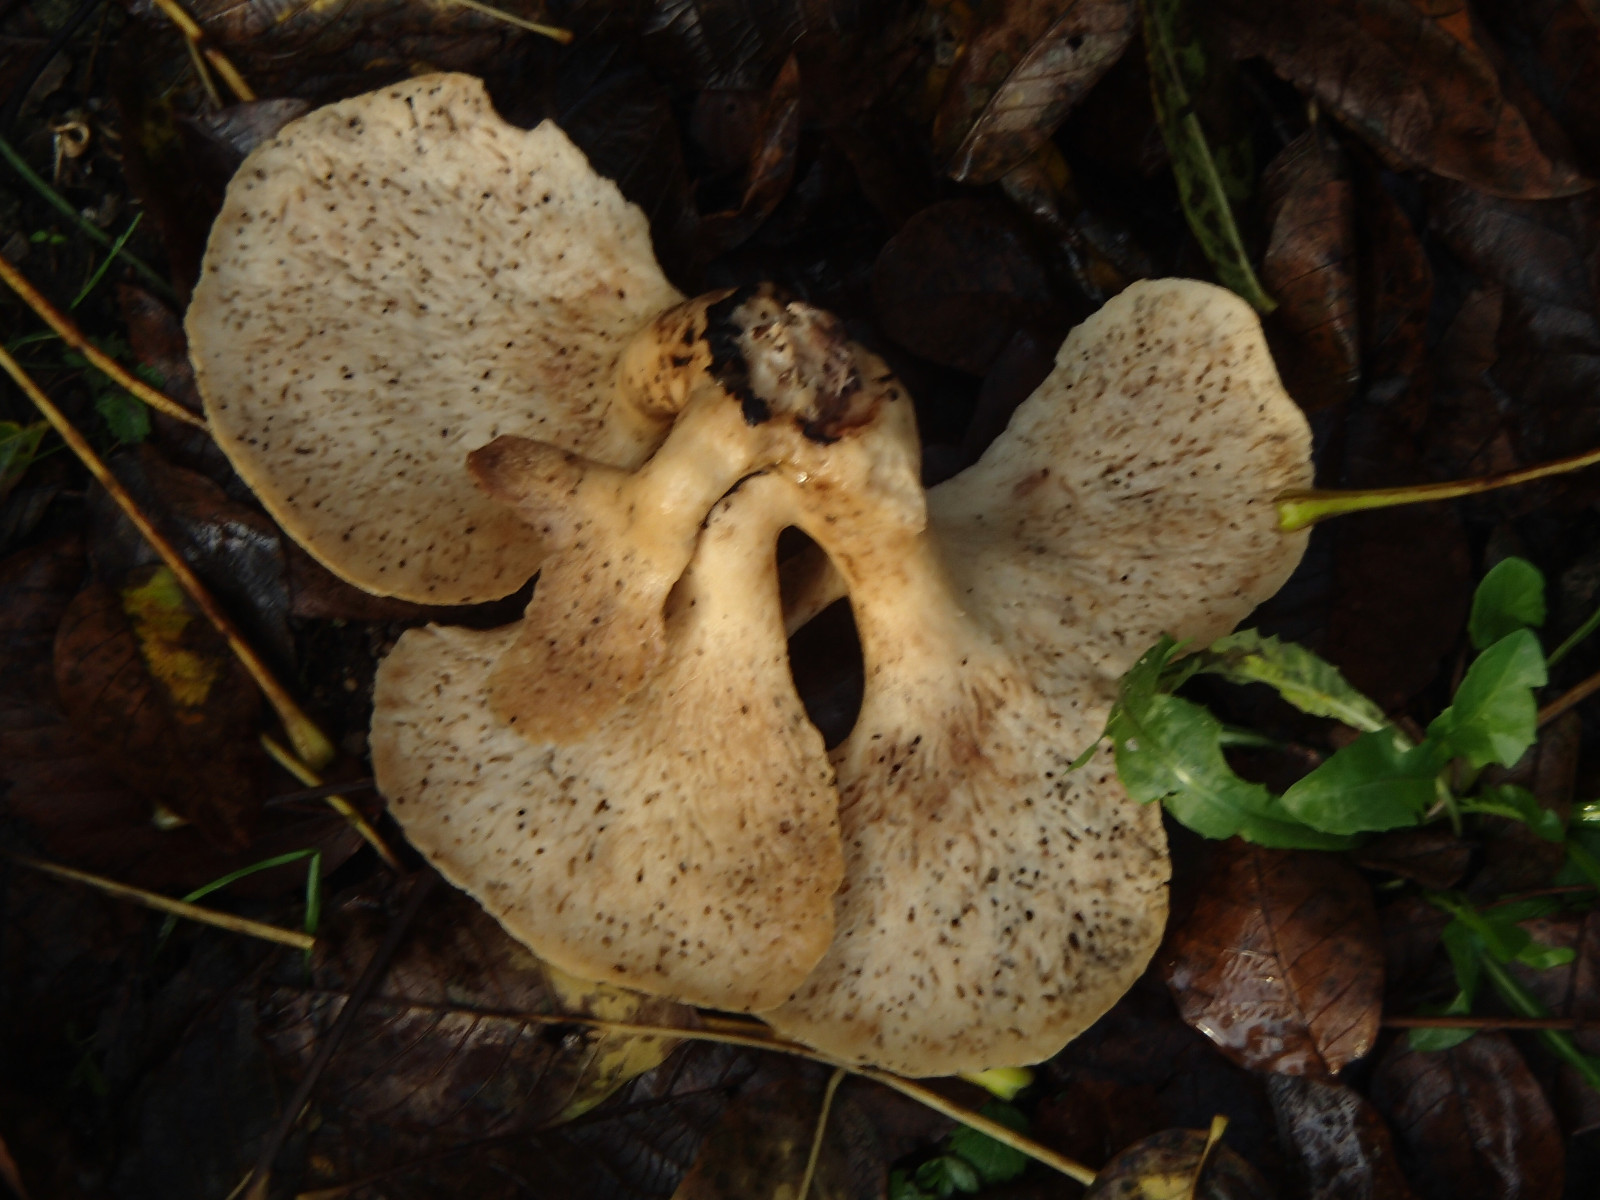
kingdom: Fungi
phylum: Basidiomycota
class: Agaricomycetes
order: Polyporales
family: Polyporaceae
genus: Cerioporus
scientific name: Cerioporus squamosus
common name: skællet stilkporesvamp
